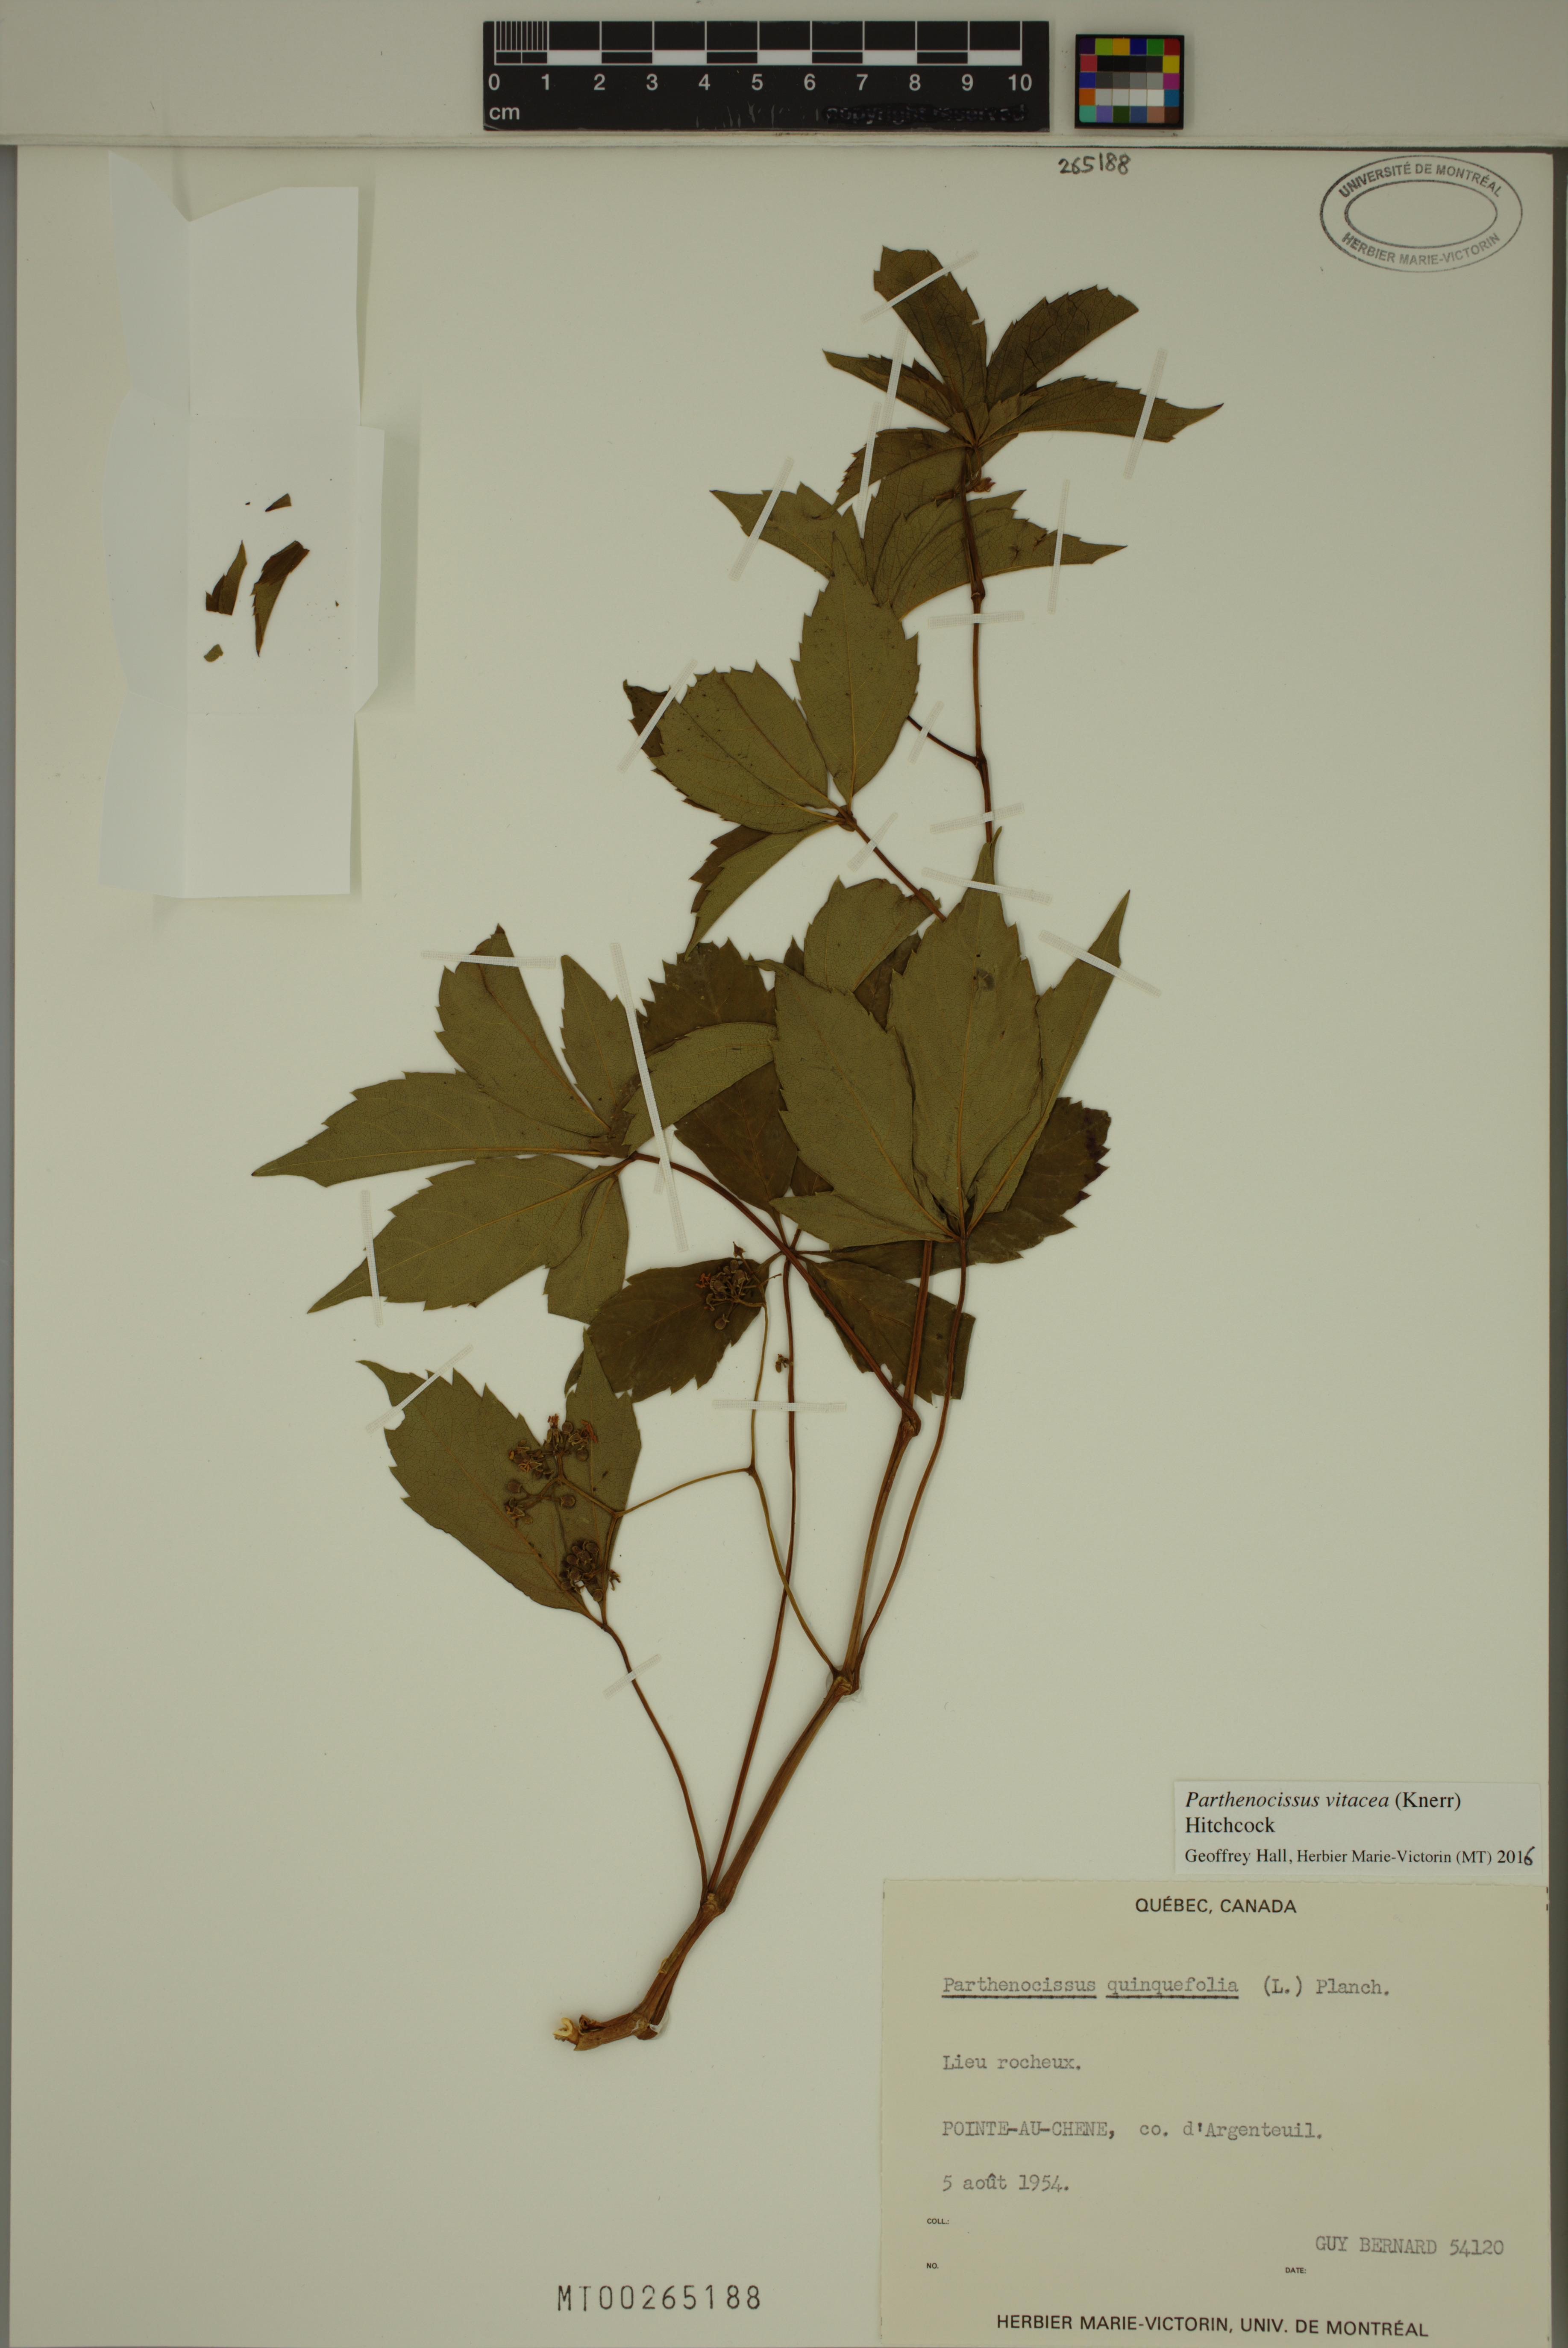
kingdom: Plantae
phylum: Tracheophyta
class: Magnoliopsida
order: Vitales
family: Vitaceae
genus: Parthenocissus
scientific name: Parthenocissus inserta
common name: False virginia-creeper
